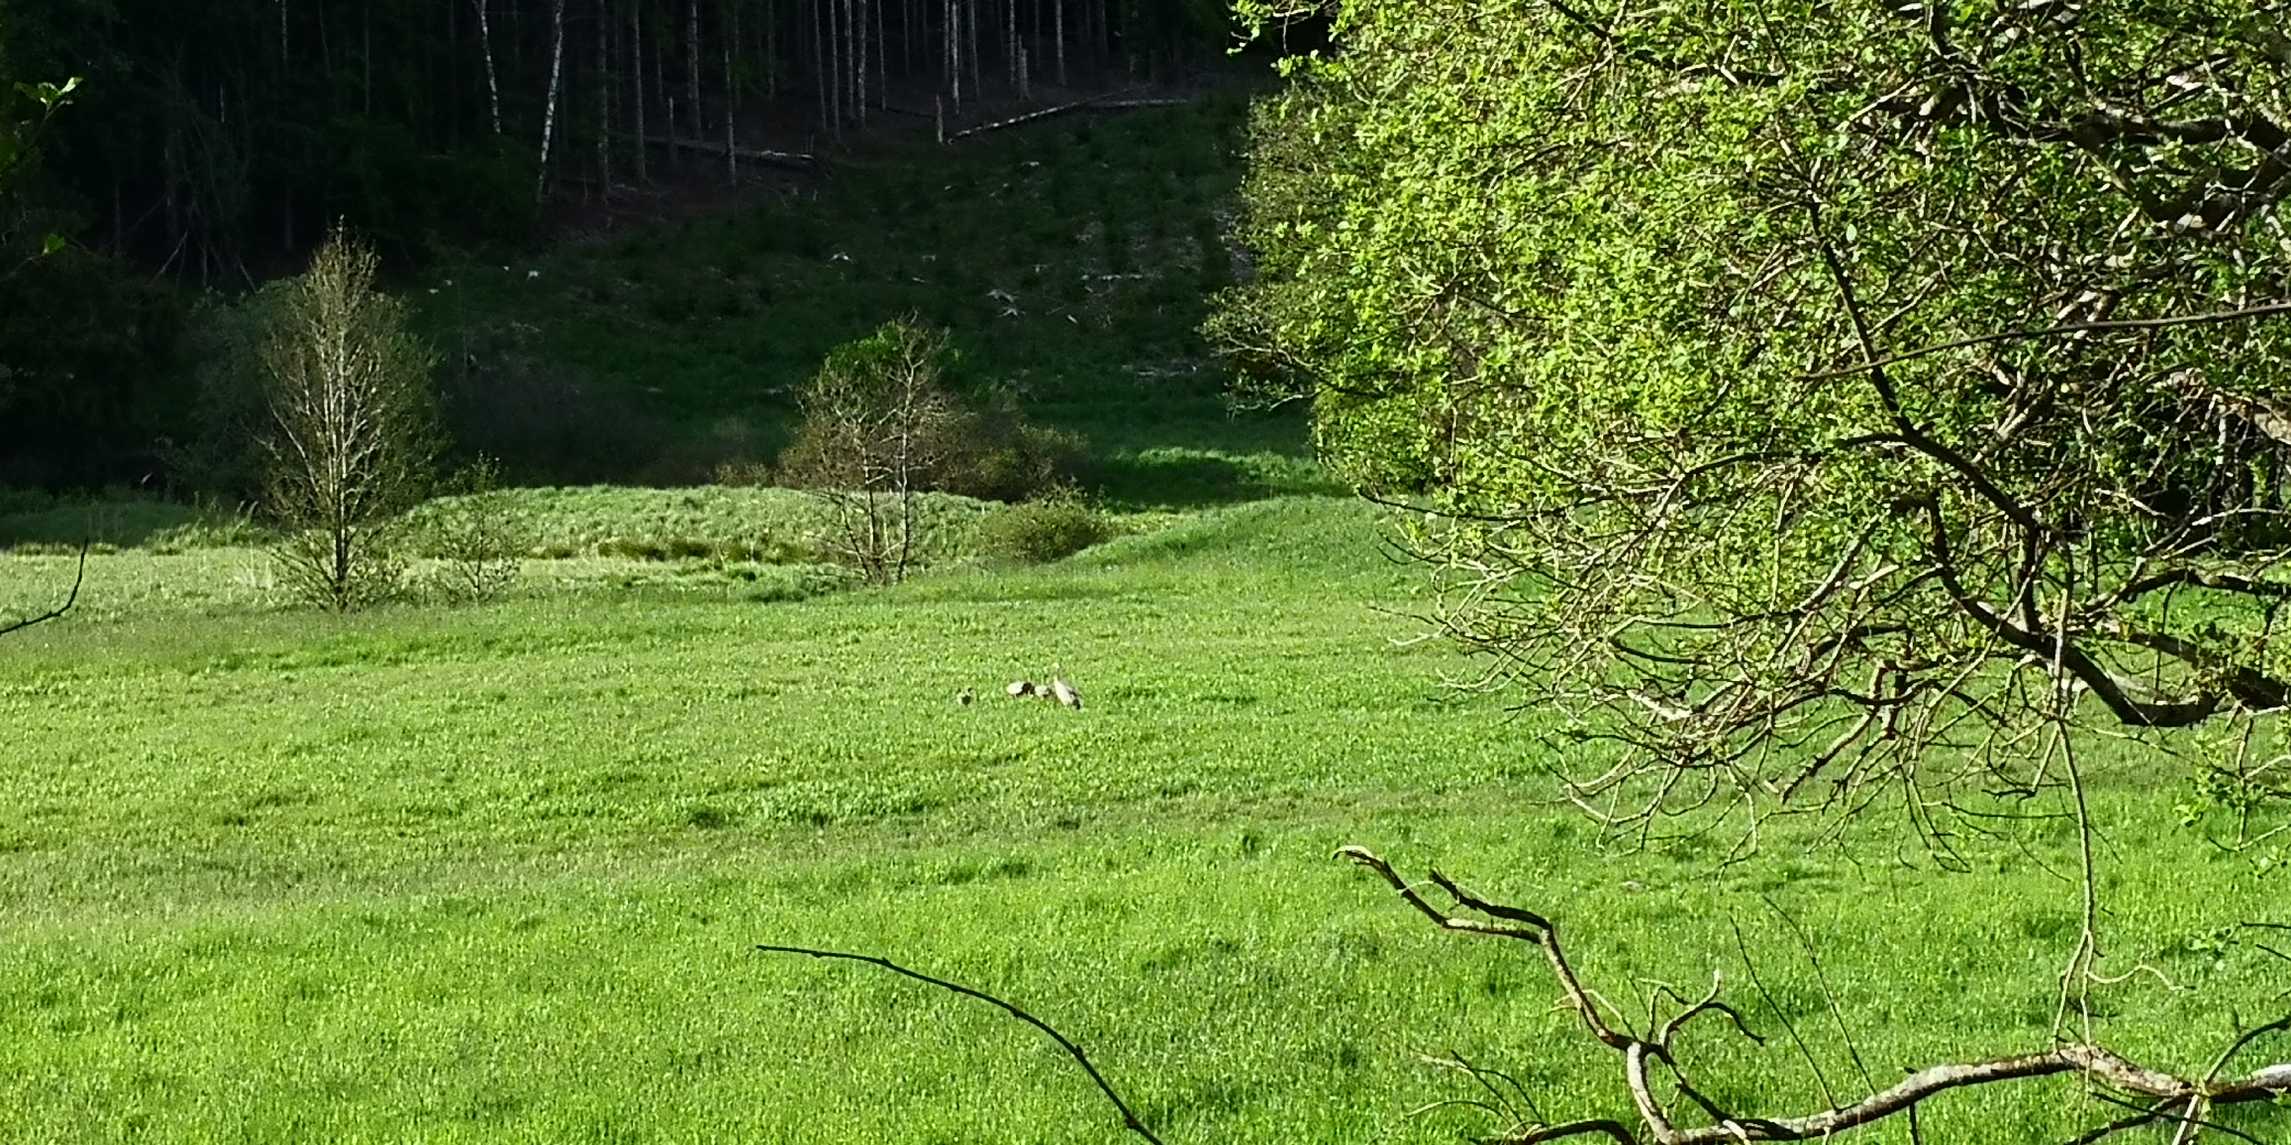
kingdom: Animalia
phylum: Chordata
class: Aves
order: Gruiformes
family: Gruidae
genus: Grus
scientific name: Grus grus
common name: Trane
